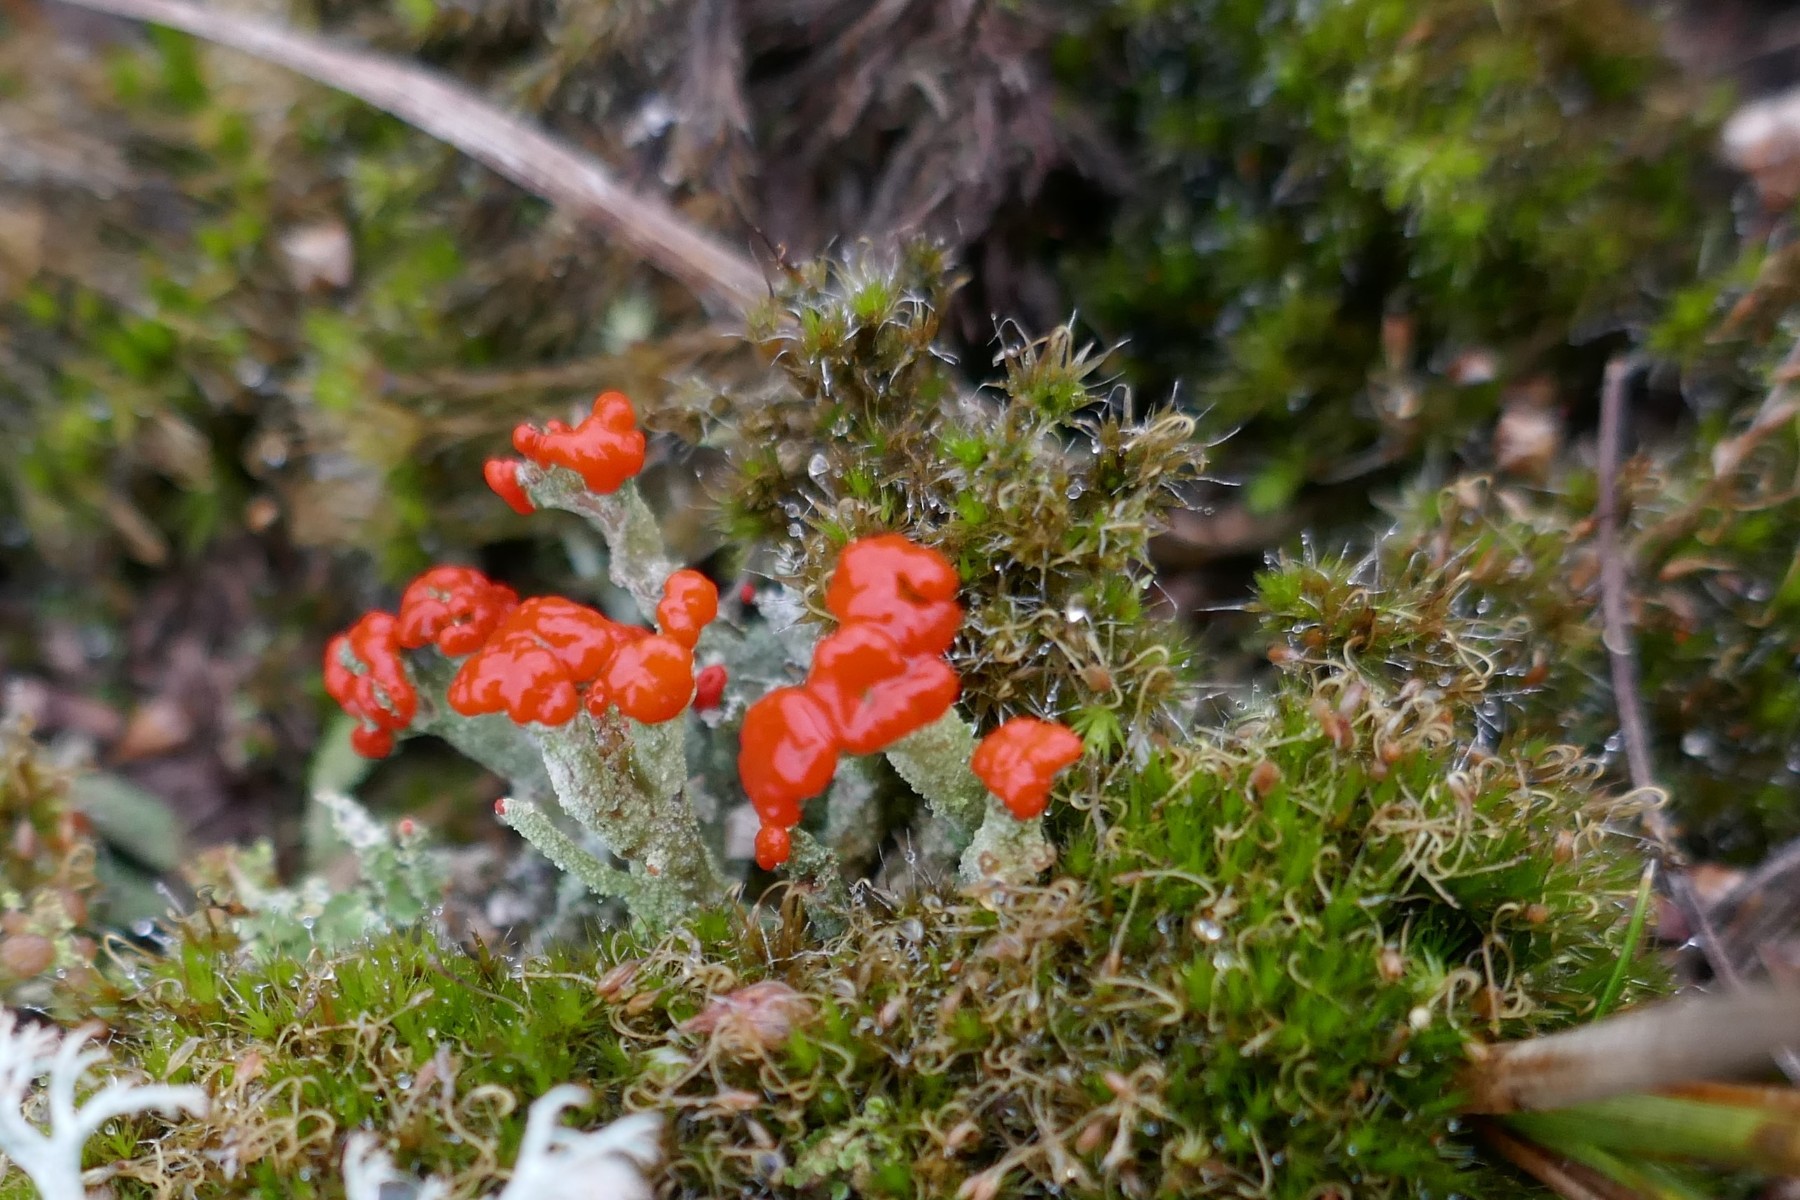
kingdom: Fungi
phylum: Ascomycota
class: Lecanoromycetes
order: Lecanorales
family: Cladoniaceae
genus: Cladonia
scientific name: Cladonia floerkeana
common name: lakrød bægerlav
